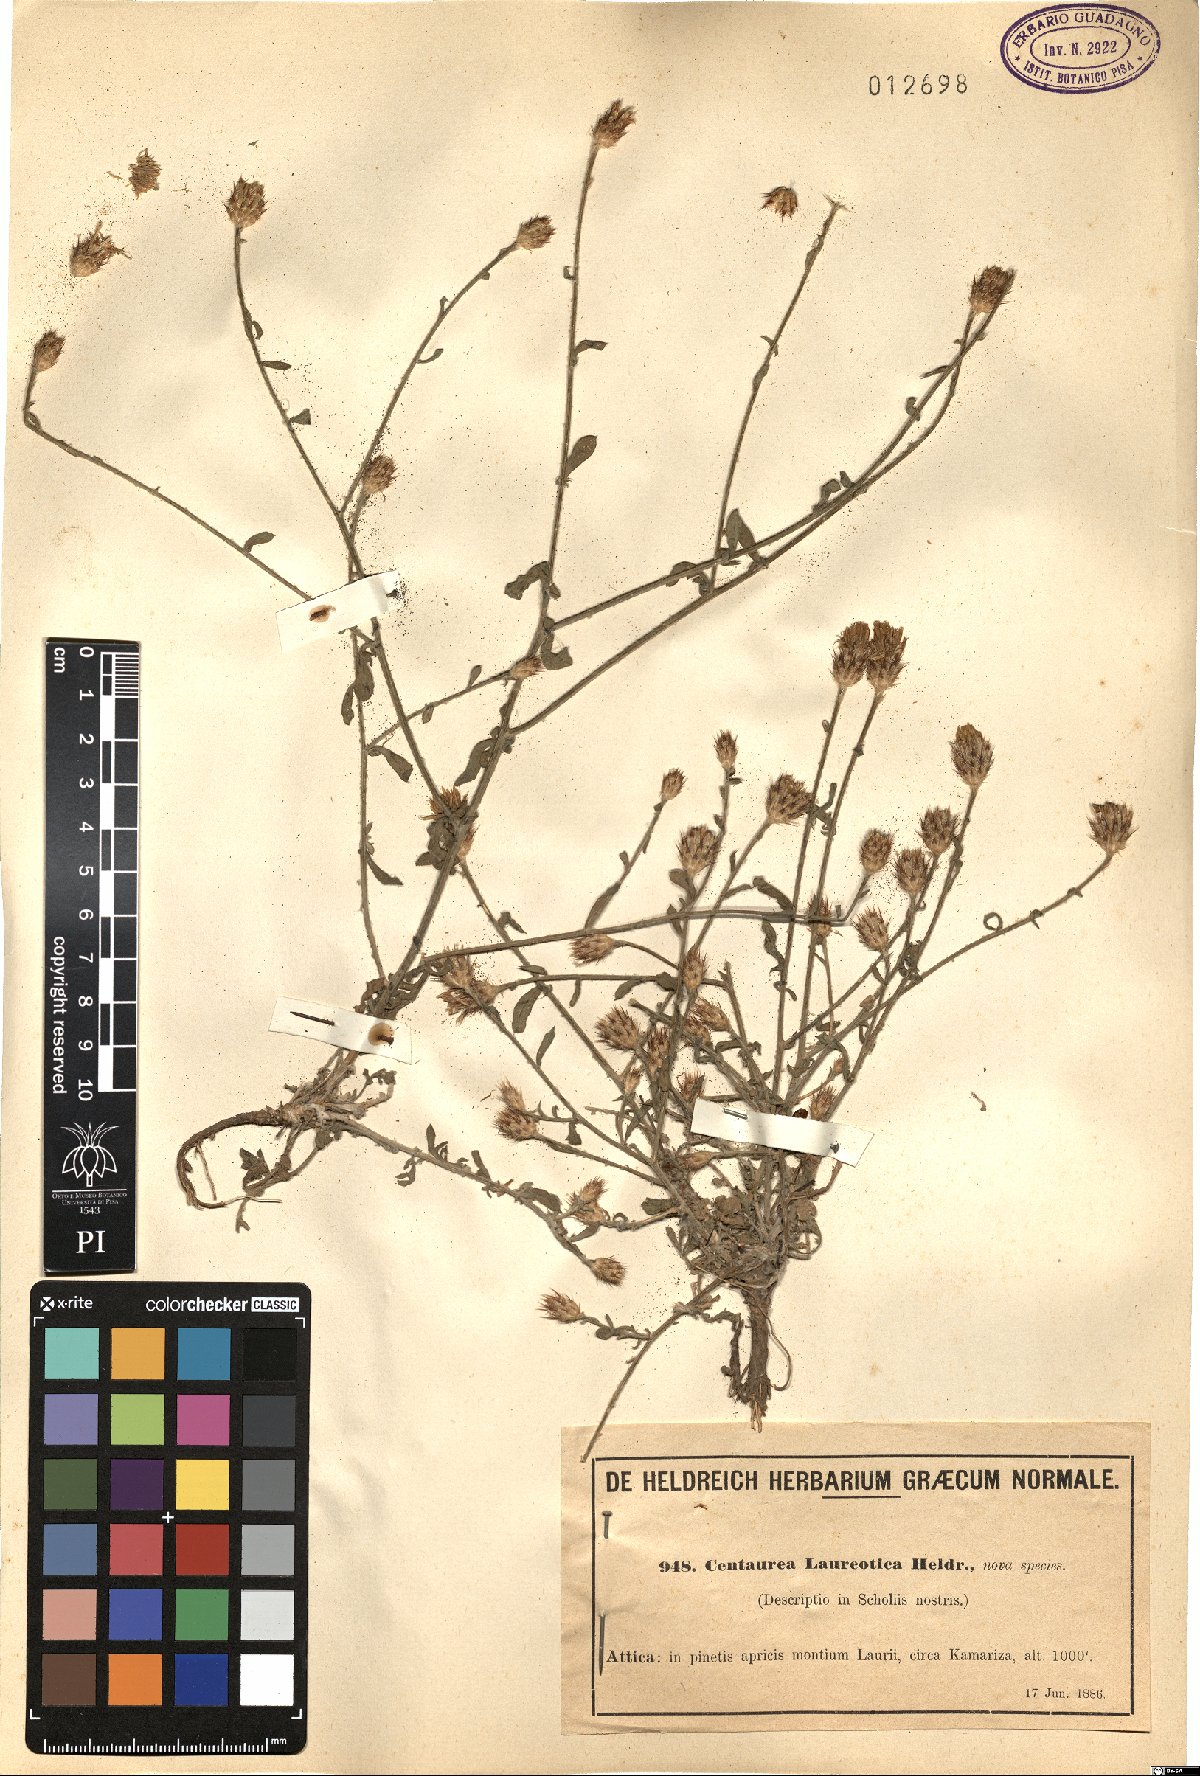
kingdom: Plantae
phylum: Tracheophyta
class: Magnoliopsida
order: Asterales
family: Asteraceae
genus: Centaurea
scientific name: Centaurea laureotica
